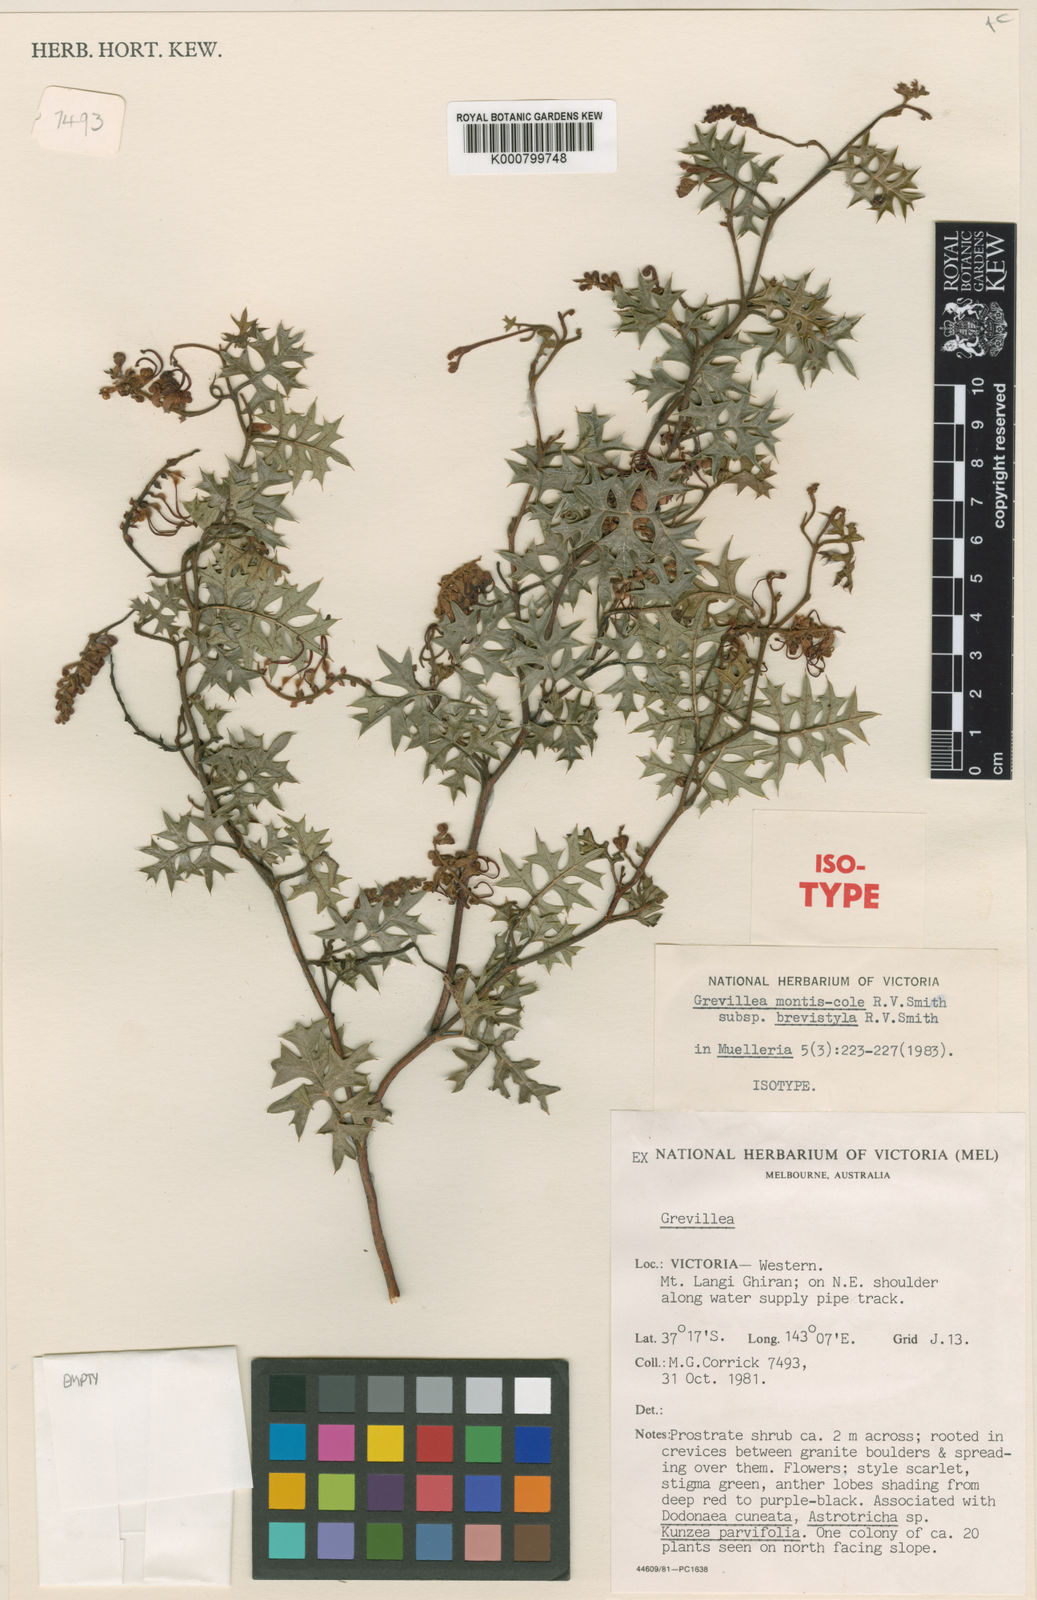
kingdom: Plantae
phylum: Tracheophyta
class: Magnoliopsida
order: Proteales
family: Proteaceae
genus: Grevillea
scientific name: Grevillea montis-cole
